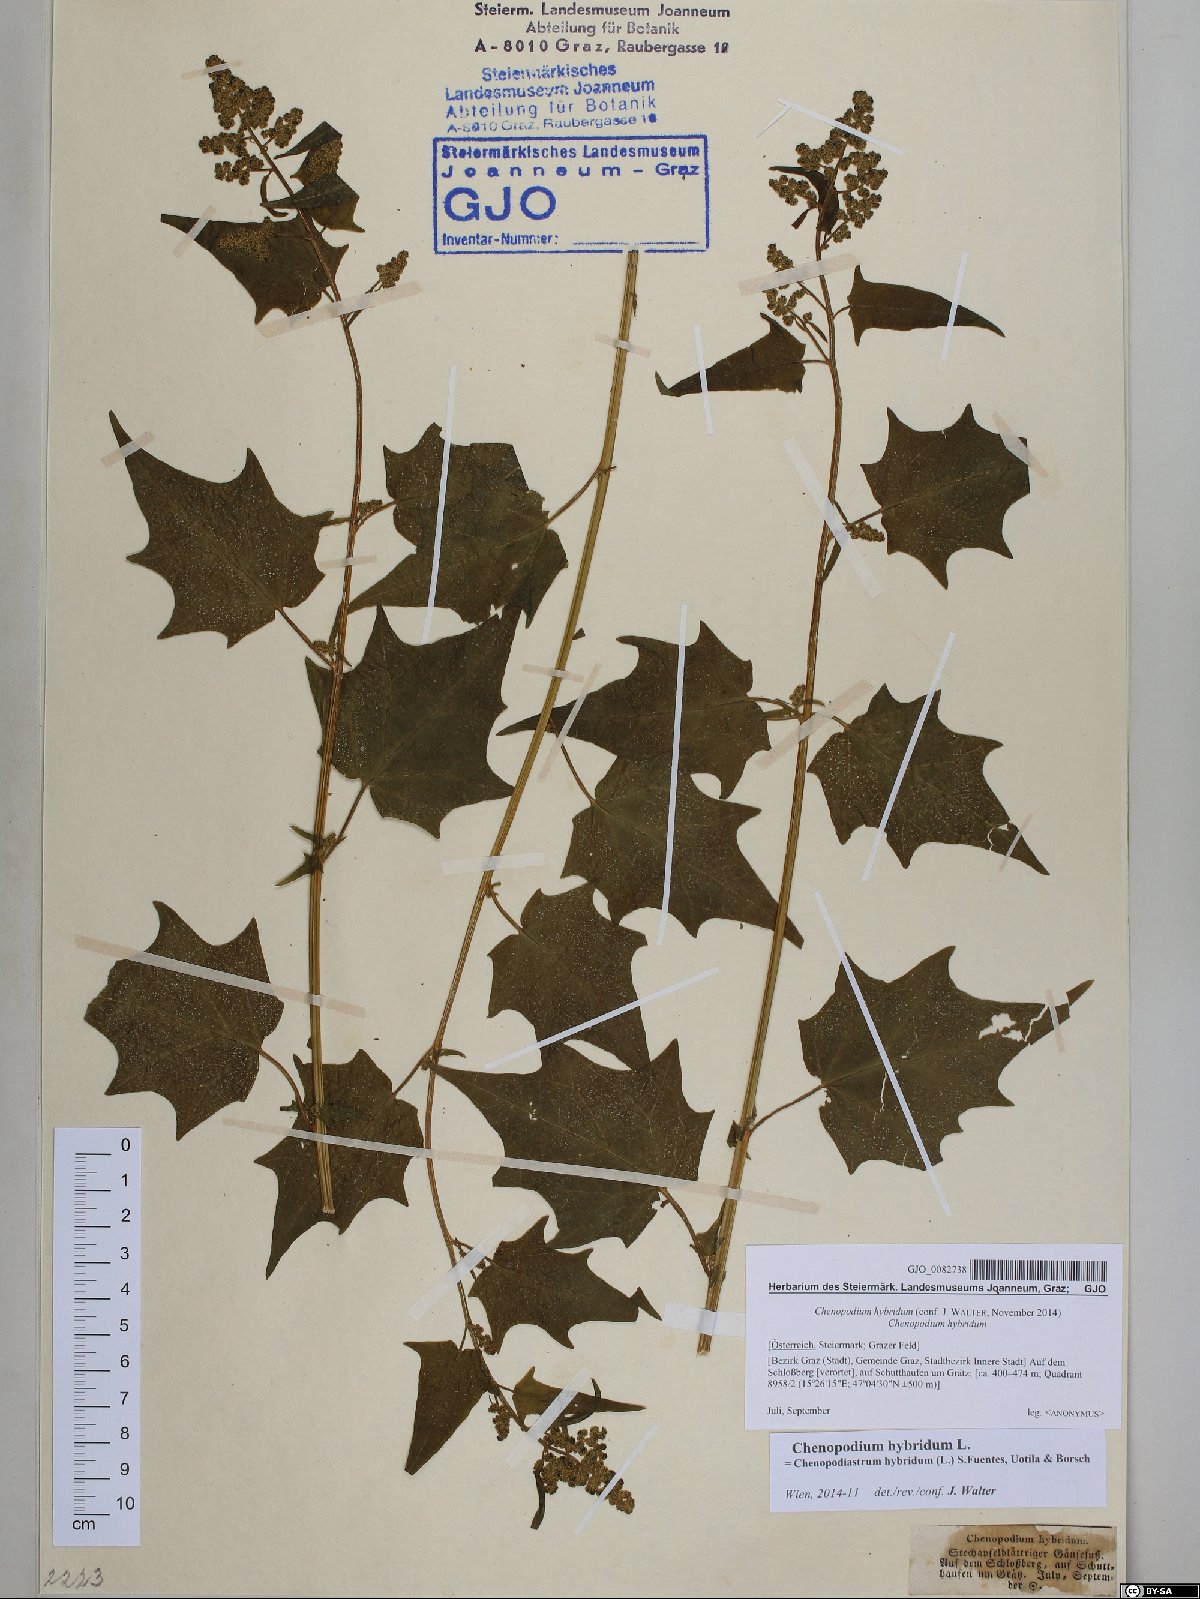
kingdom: Plantae
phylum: Tracheophyta
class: Magnoliopsida
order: Caryophyllales
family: Amaranthaceae
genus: Chenopodiastrum
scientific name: Chenopodiastrum hybridum
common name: Mapleleaf goosefoot
